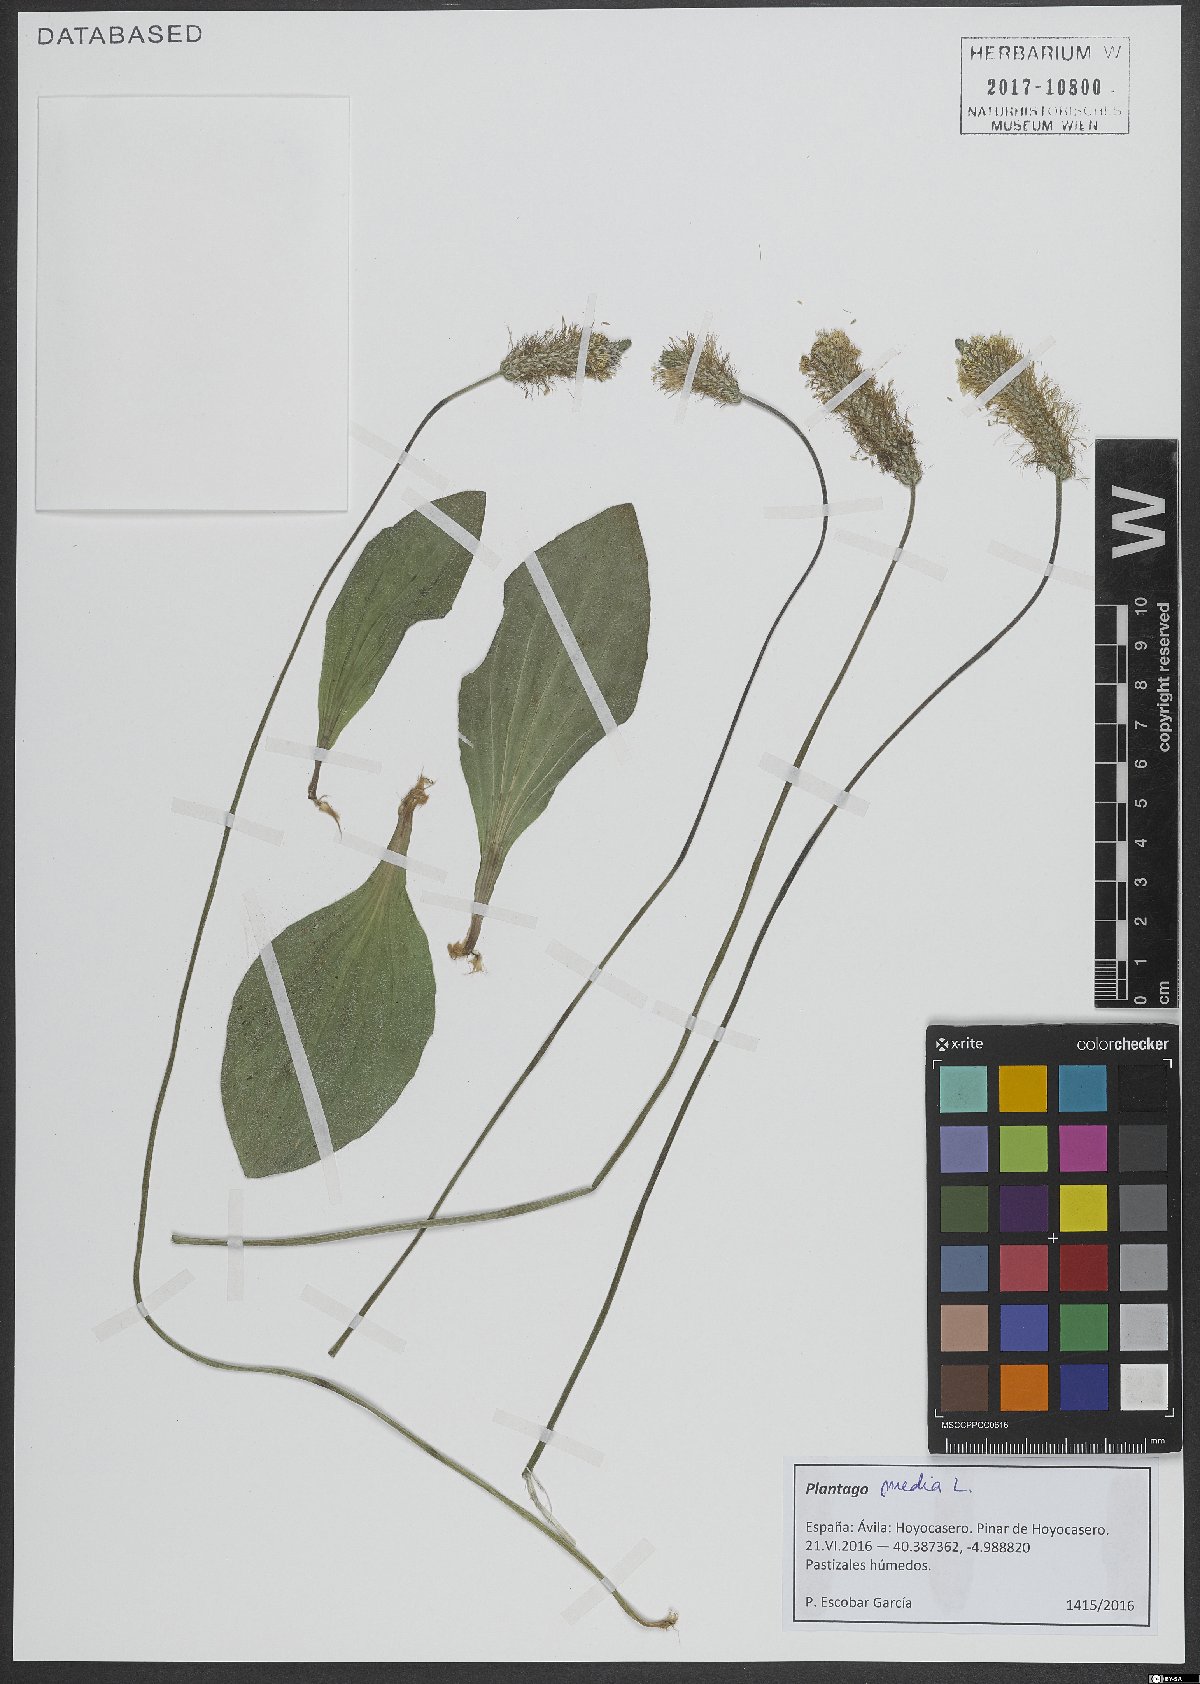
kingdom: Plantae
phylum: Tracheophyta
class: Magnoliopsida
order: Lamiales
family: Plantaginaceae
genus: Plantago
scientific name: Plantago media
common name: Hoary plantain
